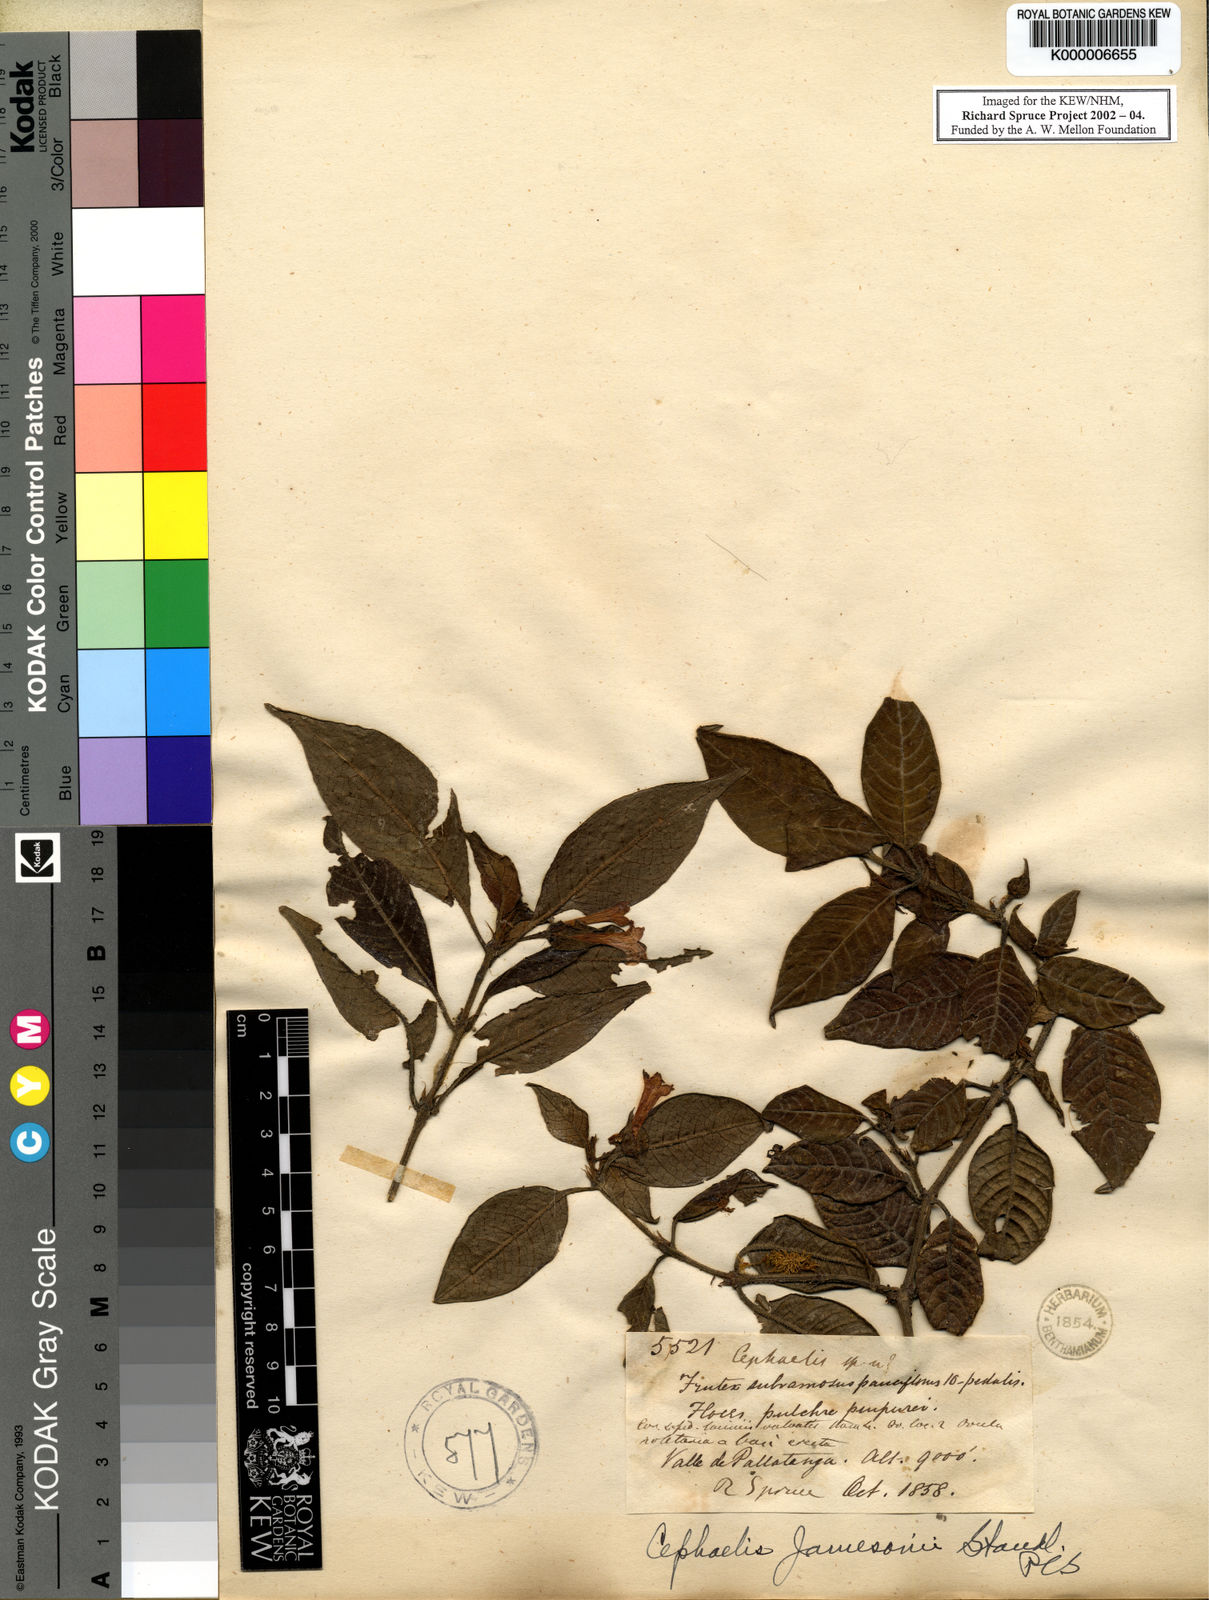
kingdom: Plantae
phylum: Tracheophyta
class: Magnoliopsida
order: Gentianales
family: Rubiaceae
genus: Palicourea
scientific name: Palicourea fuchsioides
